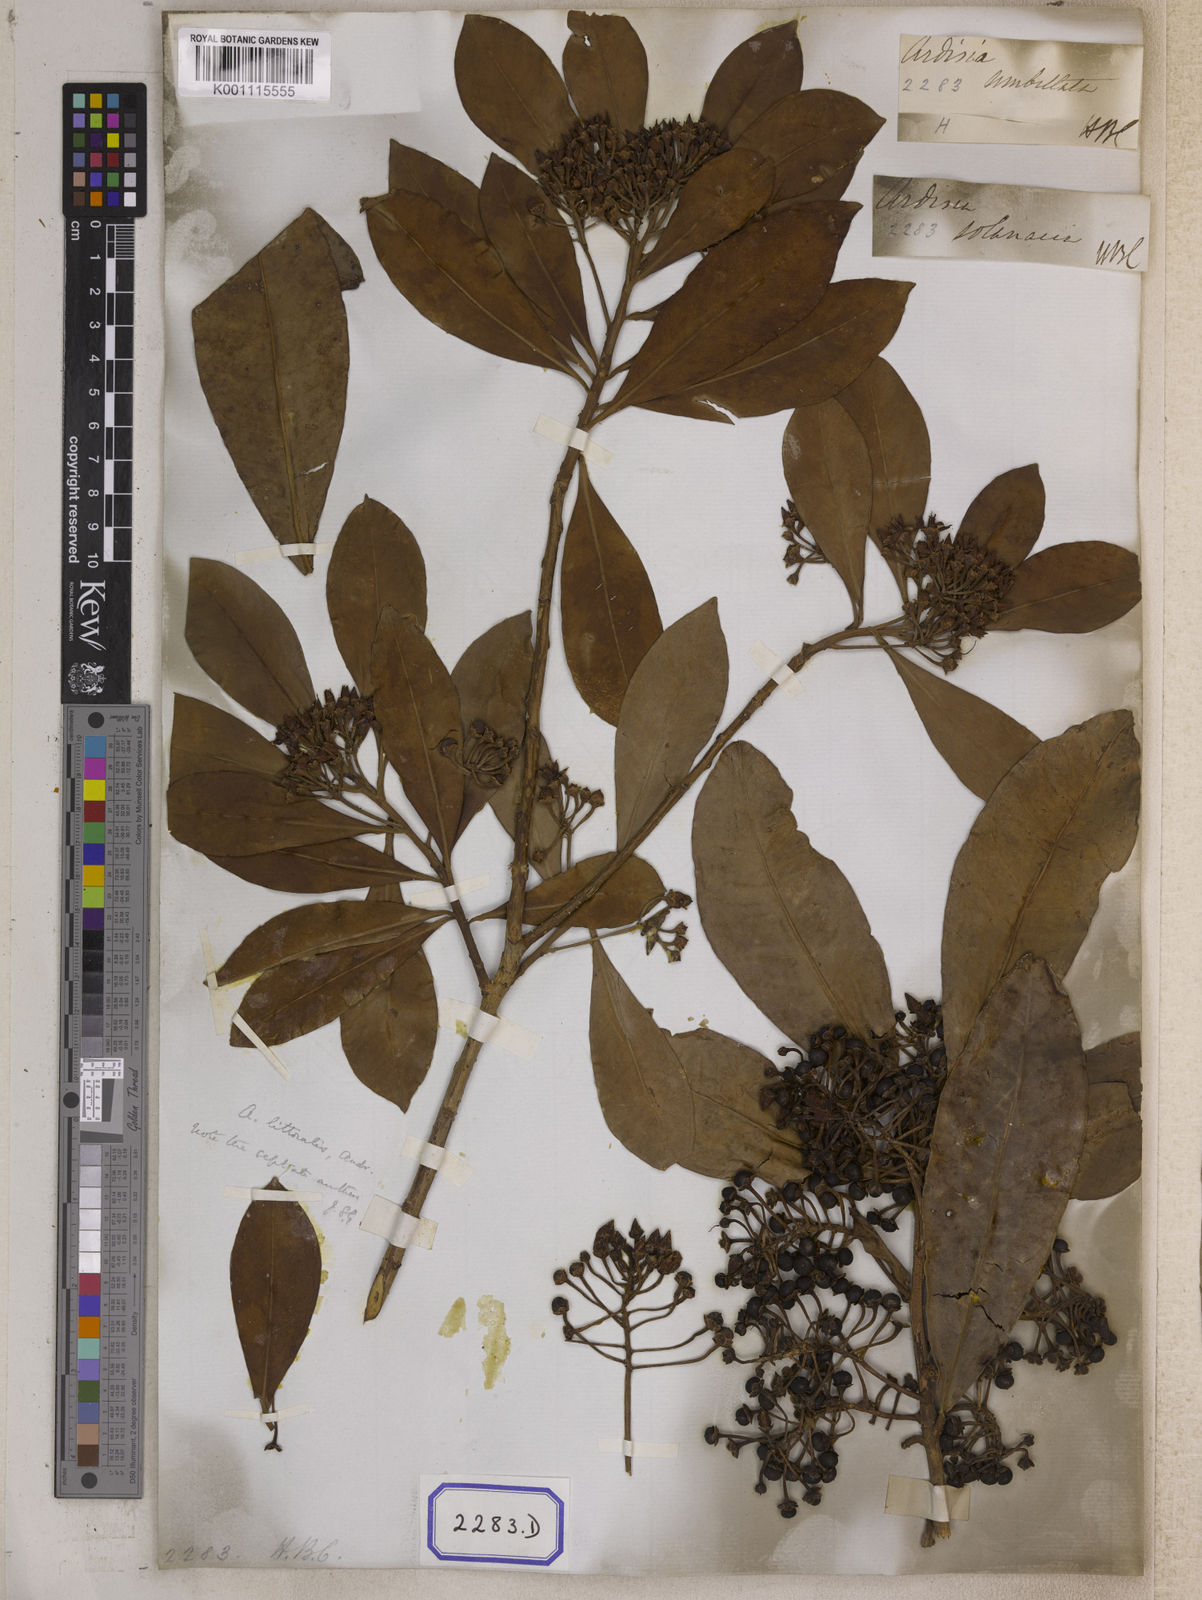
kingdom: Plantae
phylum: Tracheophyta
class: Magnoliopsida
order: Ericales
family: Primulaceae
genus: Ardisia
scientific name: Ardisia humilis
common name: Low shoebutton
